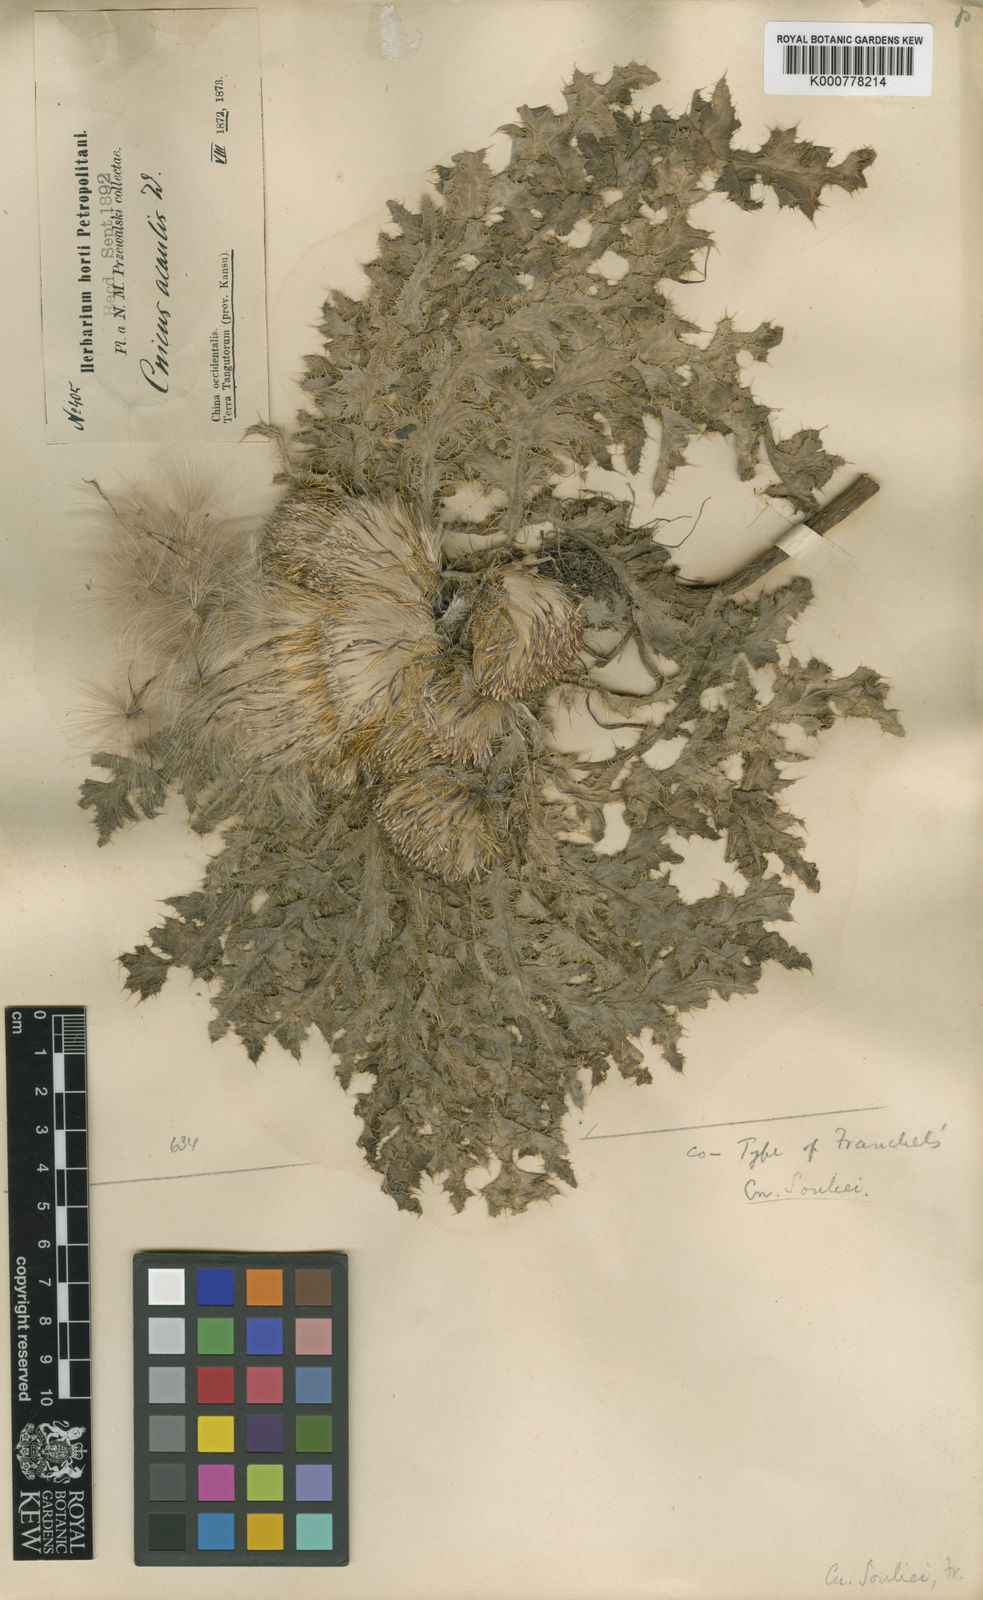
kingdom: Plantae
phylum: Tracheophyta
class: Magnoliopsida
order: Asterales
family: Asteraceae
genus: Cirsium
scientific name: Cirsium souliei
